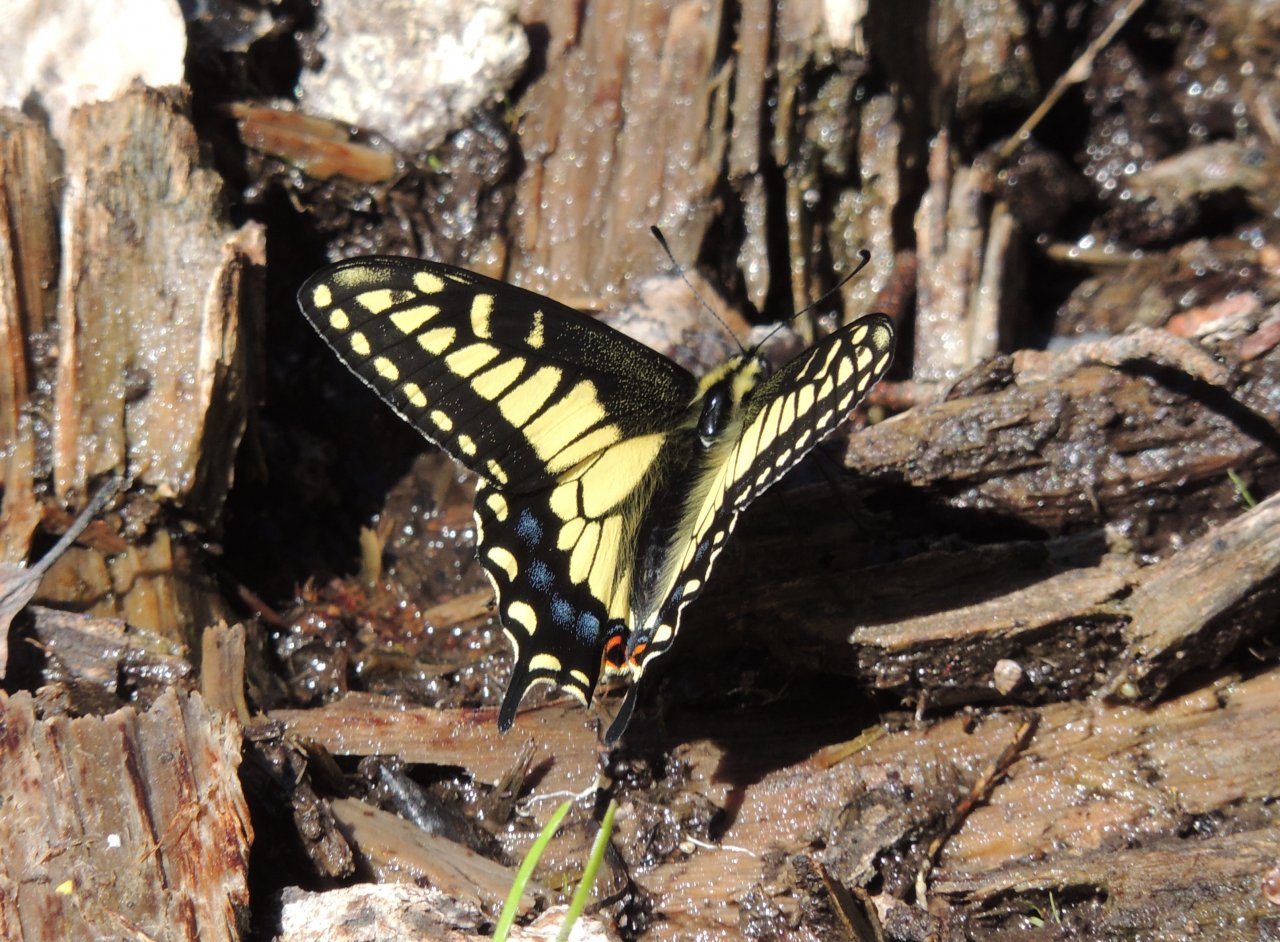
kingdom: Animalia
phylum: Arthropoda
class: Insecta
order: Lepidoptera
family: Papilionidae
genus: Papilio
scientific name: Papilio zelicaon
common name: Anise Swallowtail
